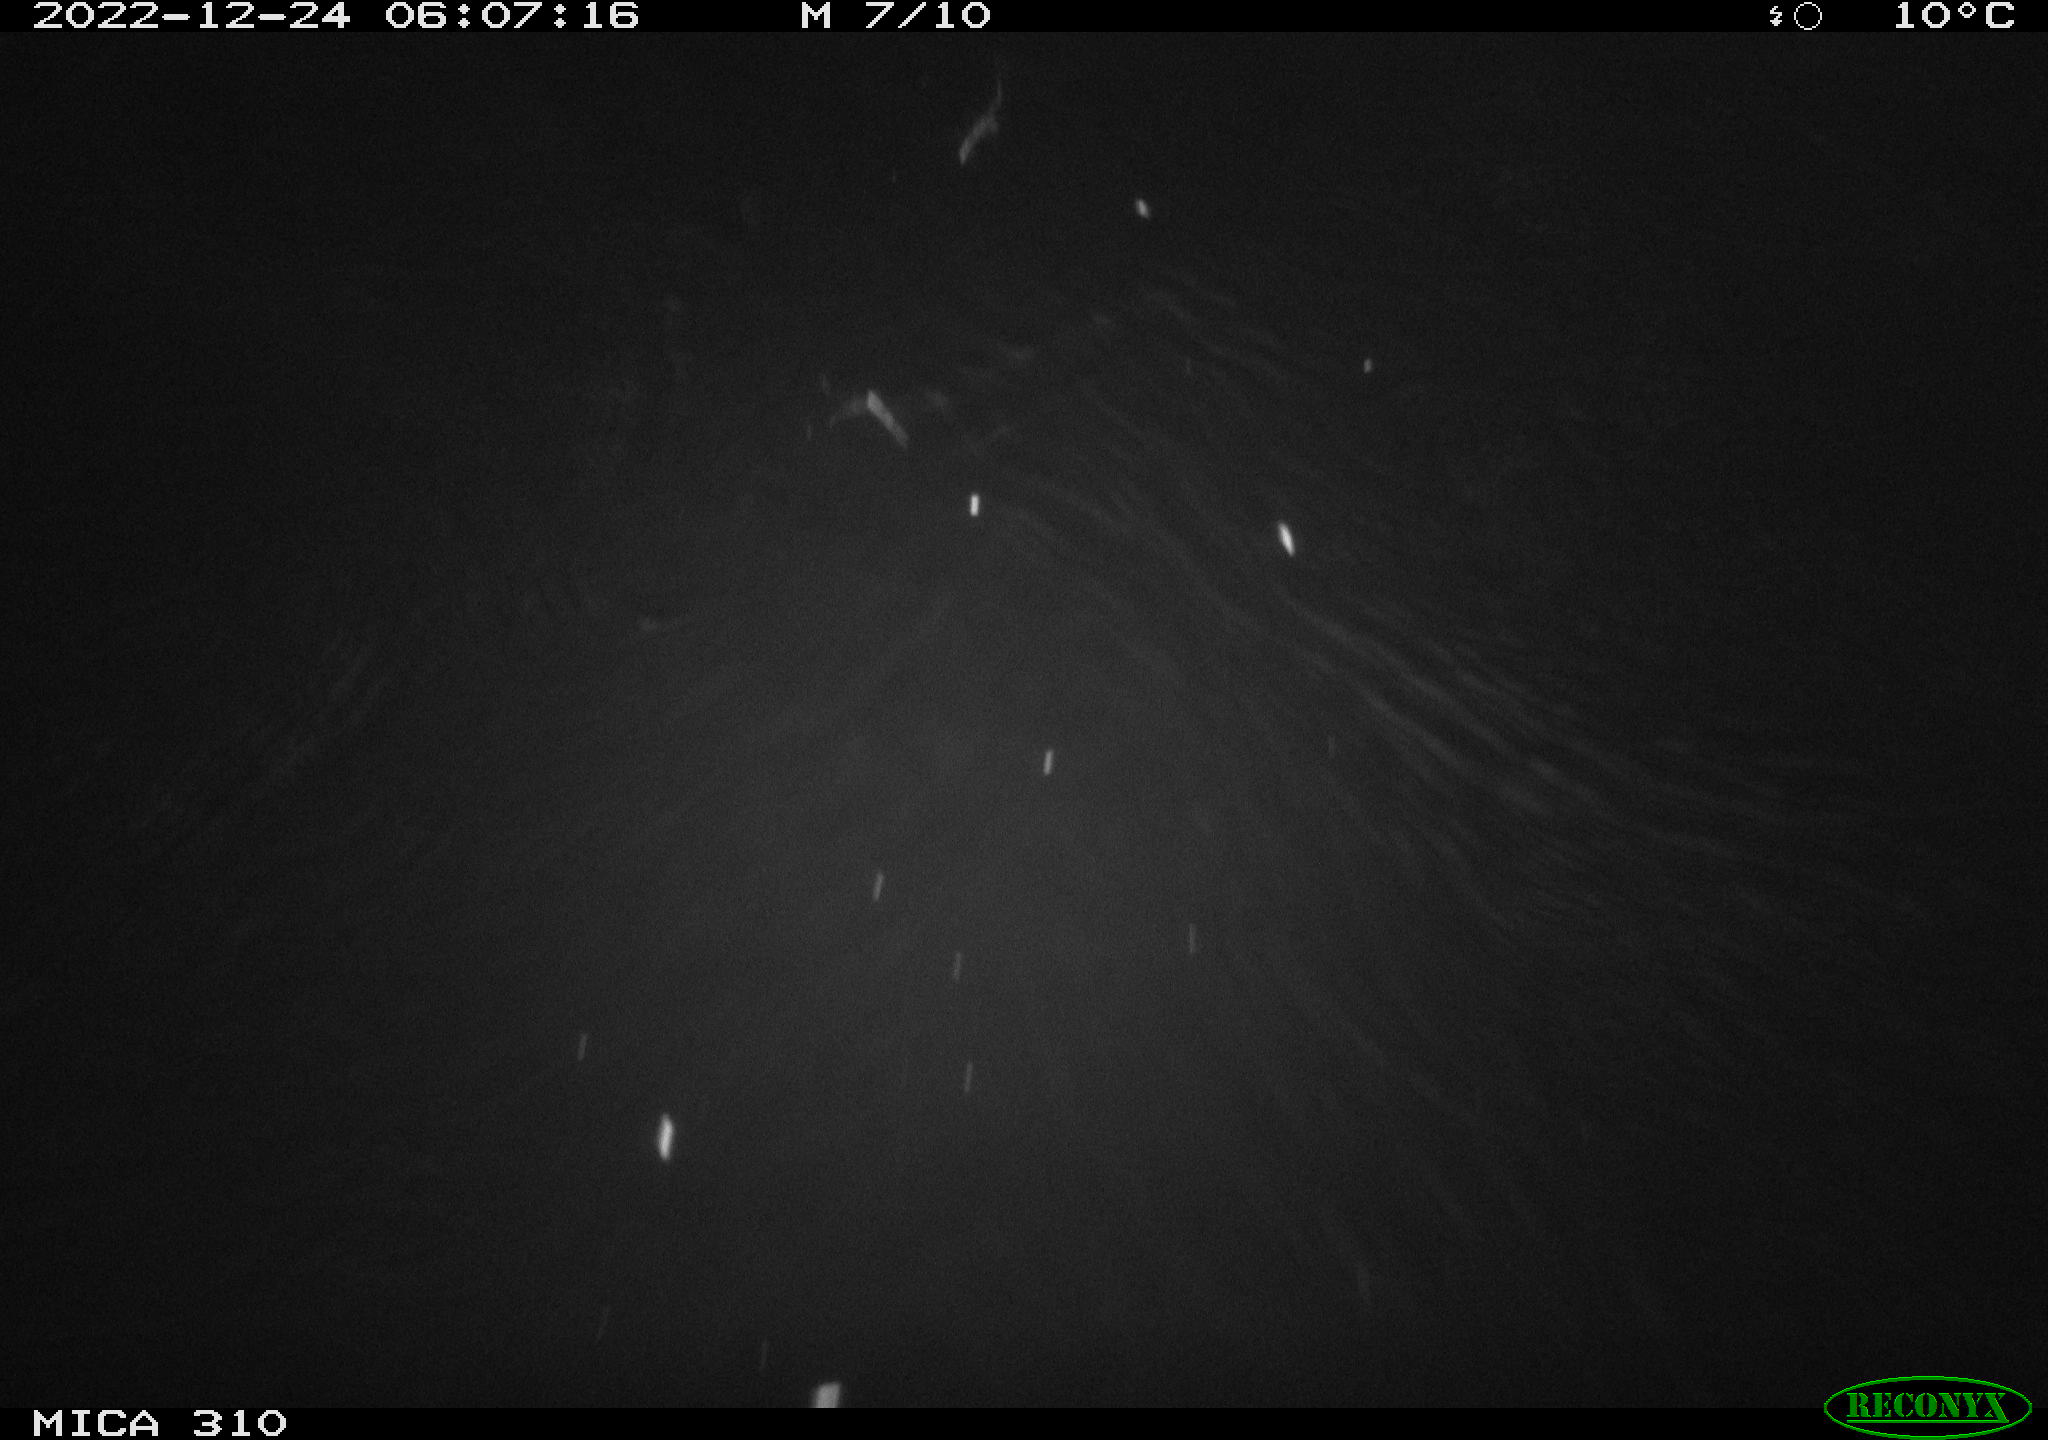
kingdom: Animalia
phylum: Chordata
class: Mammalia
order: Rodentia
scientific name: Rodentia
